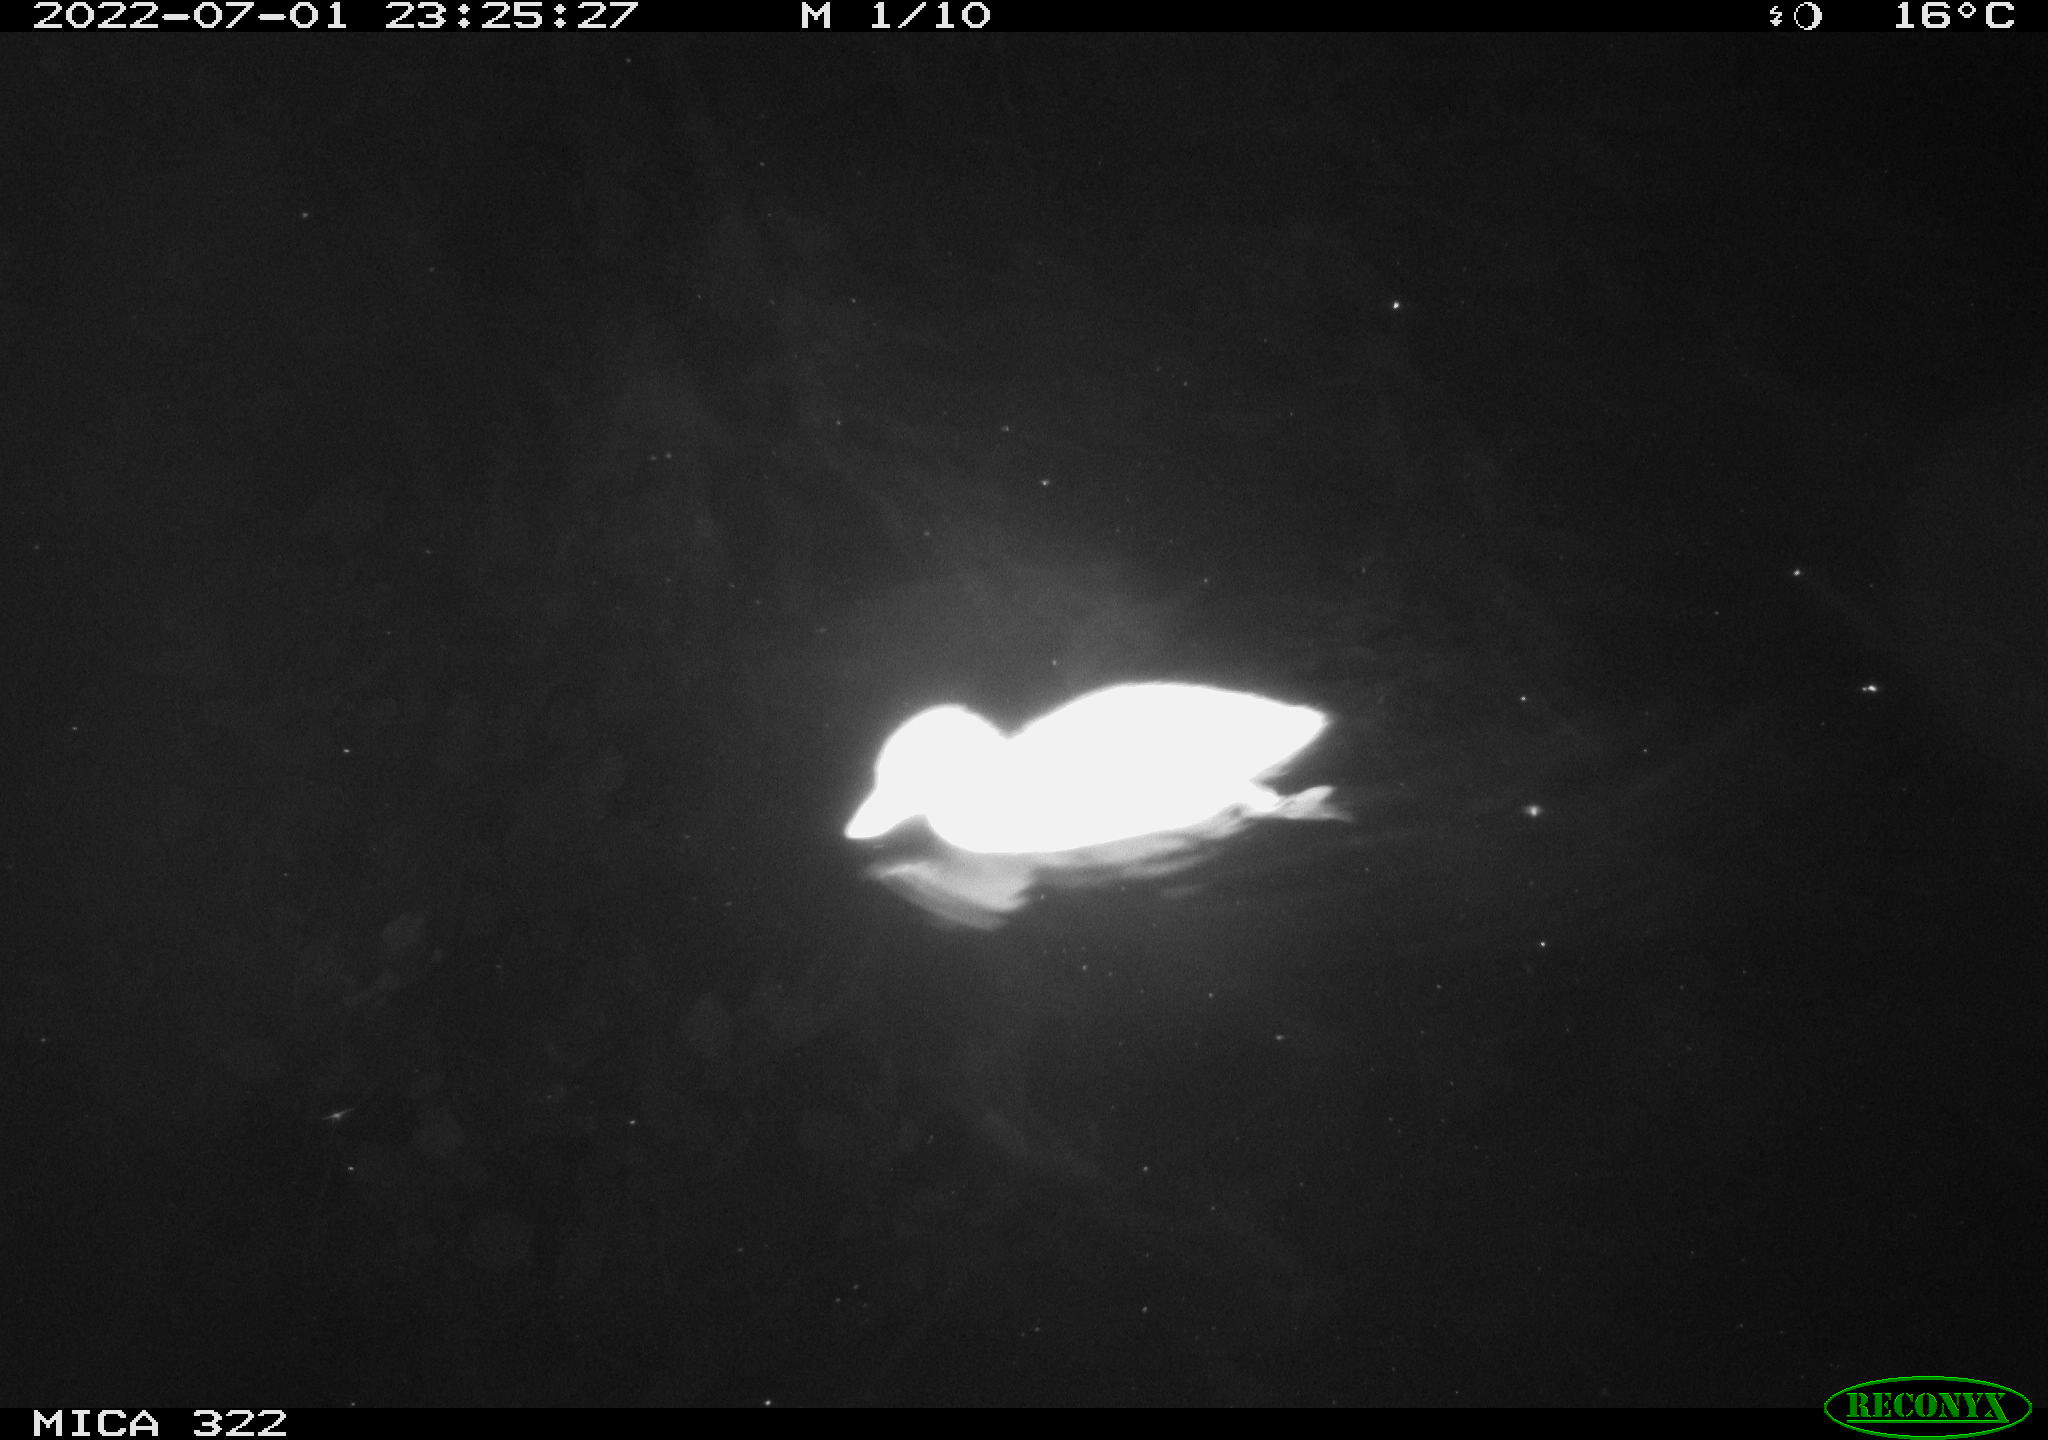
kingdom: Animalia
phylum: Chordata
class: Aves
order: Anseriformes
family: Anatidae
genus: Mareca
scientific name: Mareca strepera
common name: Gadwall
